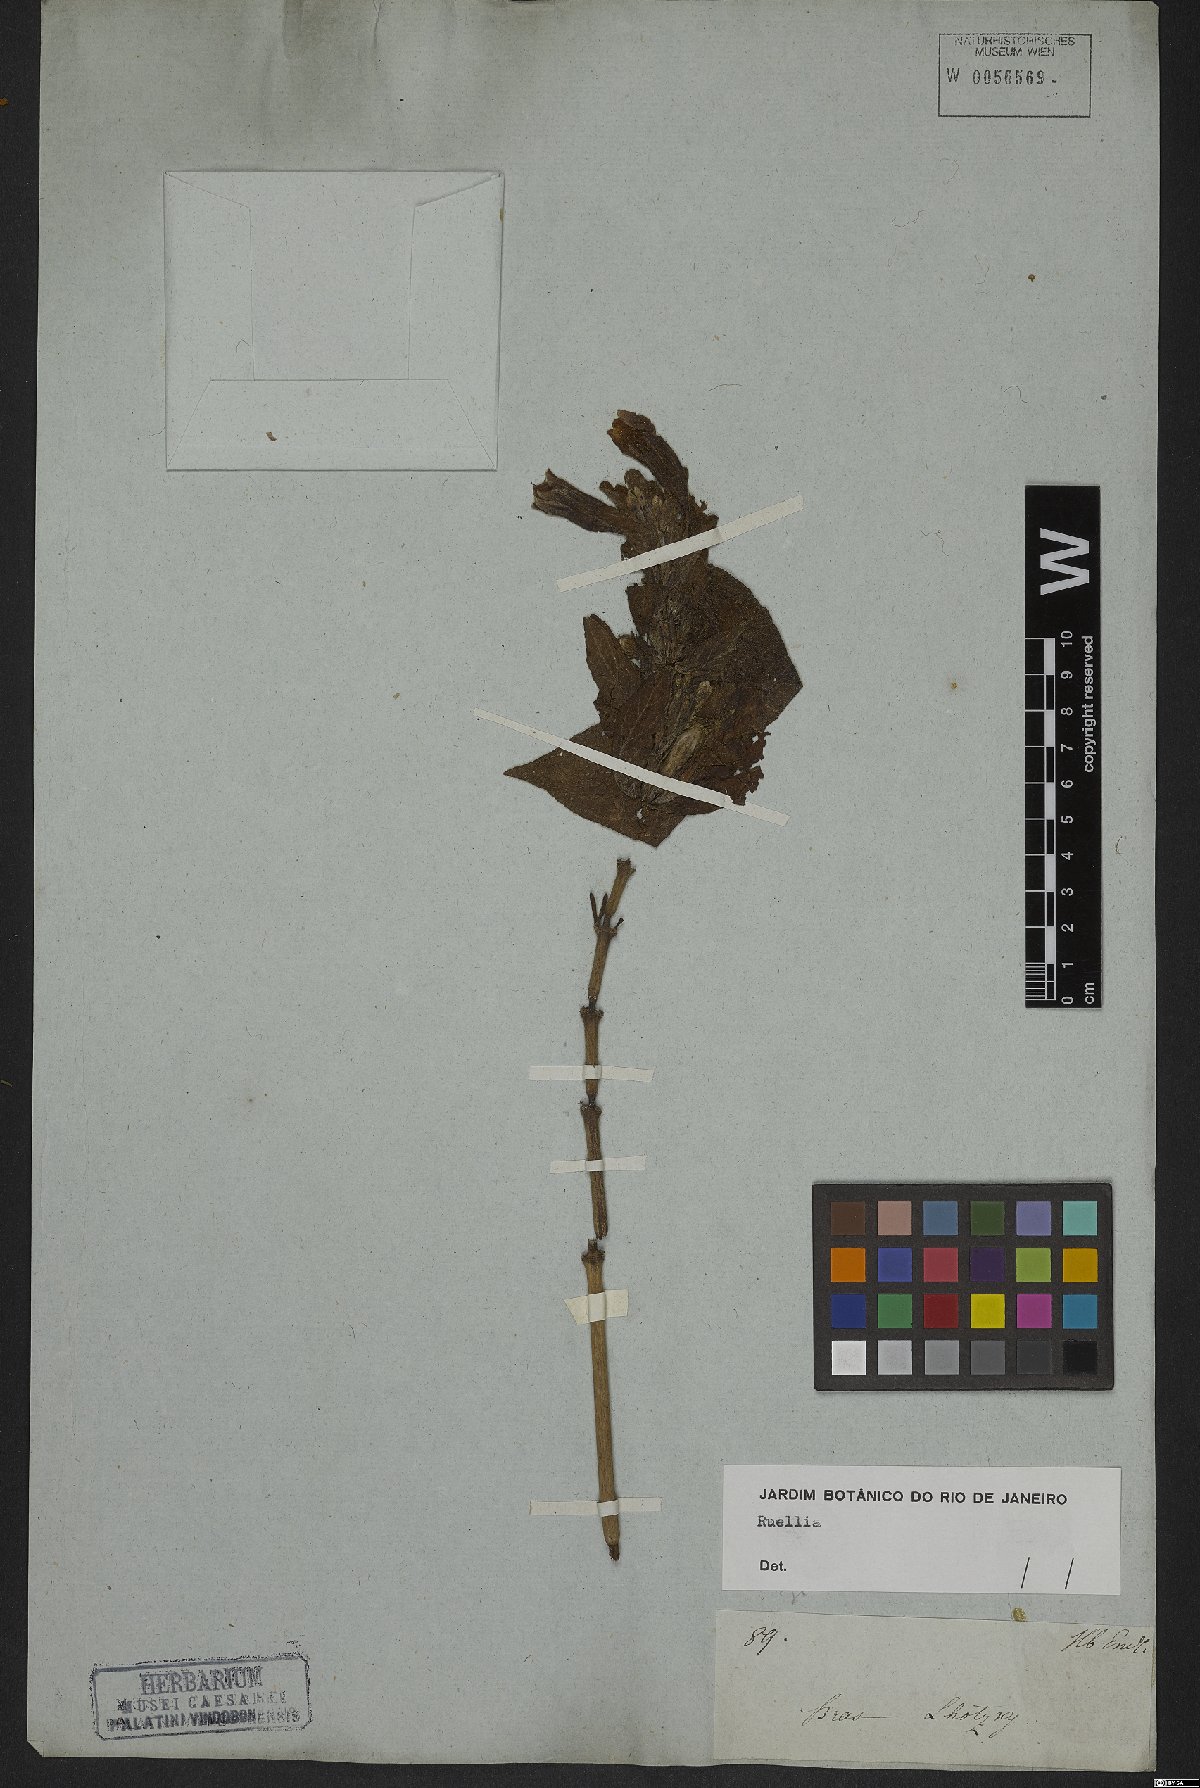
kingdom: Plantae
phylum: Tracheophyta
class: Magnoliopsida
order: Lamiales
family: Acanthaceae
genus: Ruellia
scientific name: Ruellia
